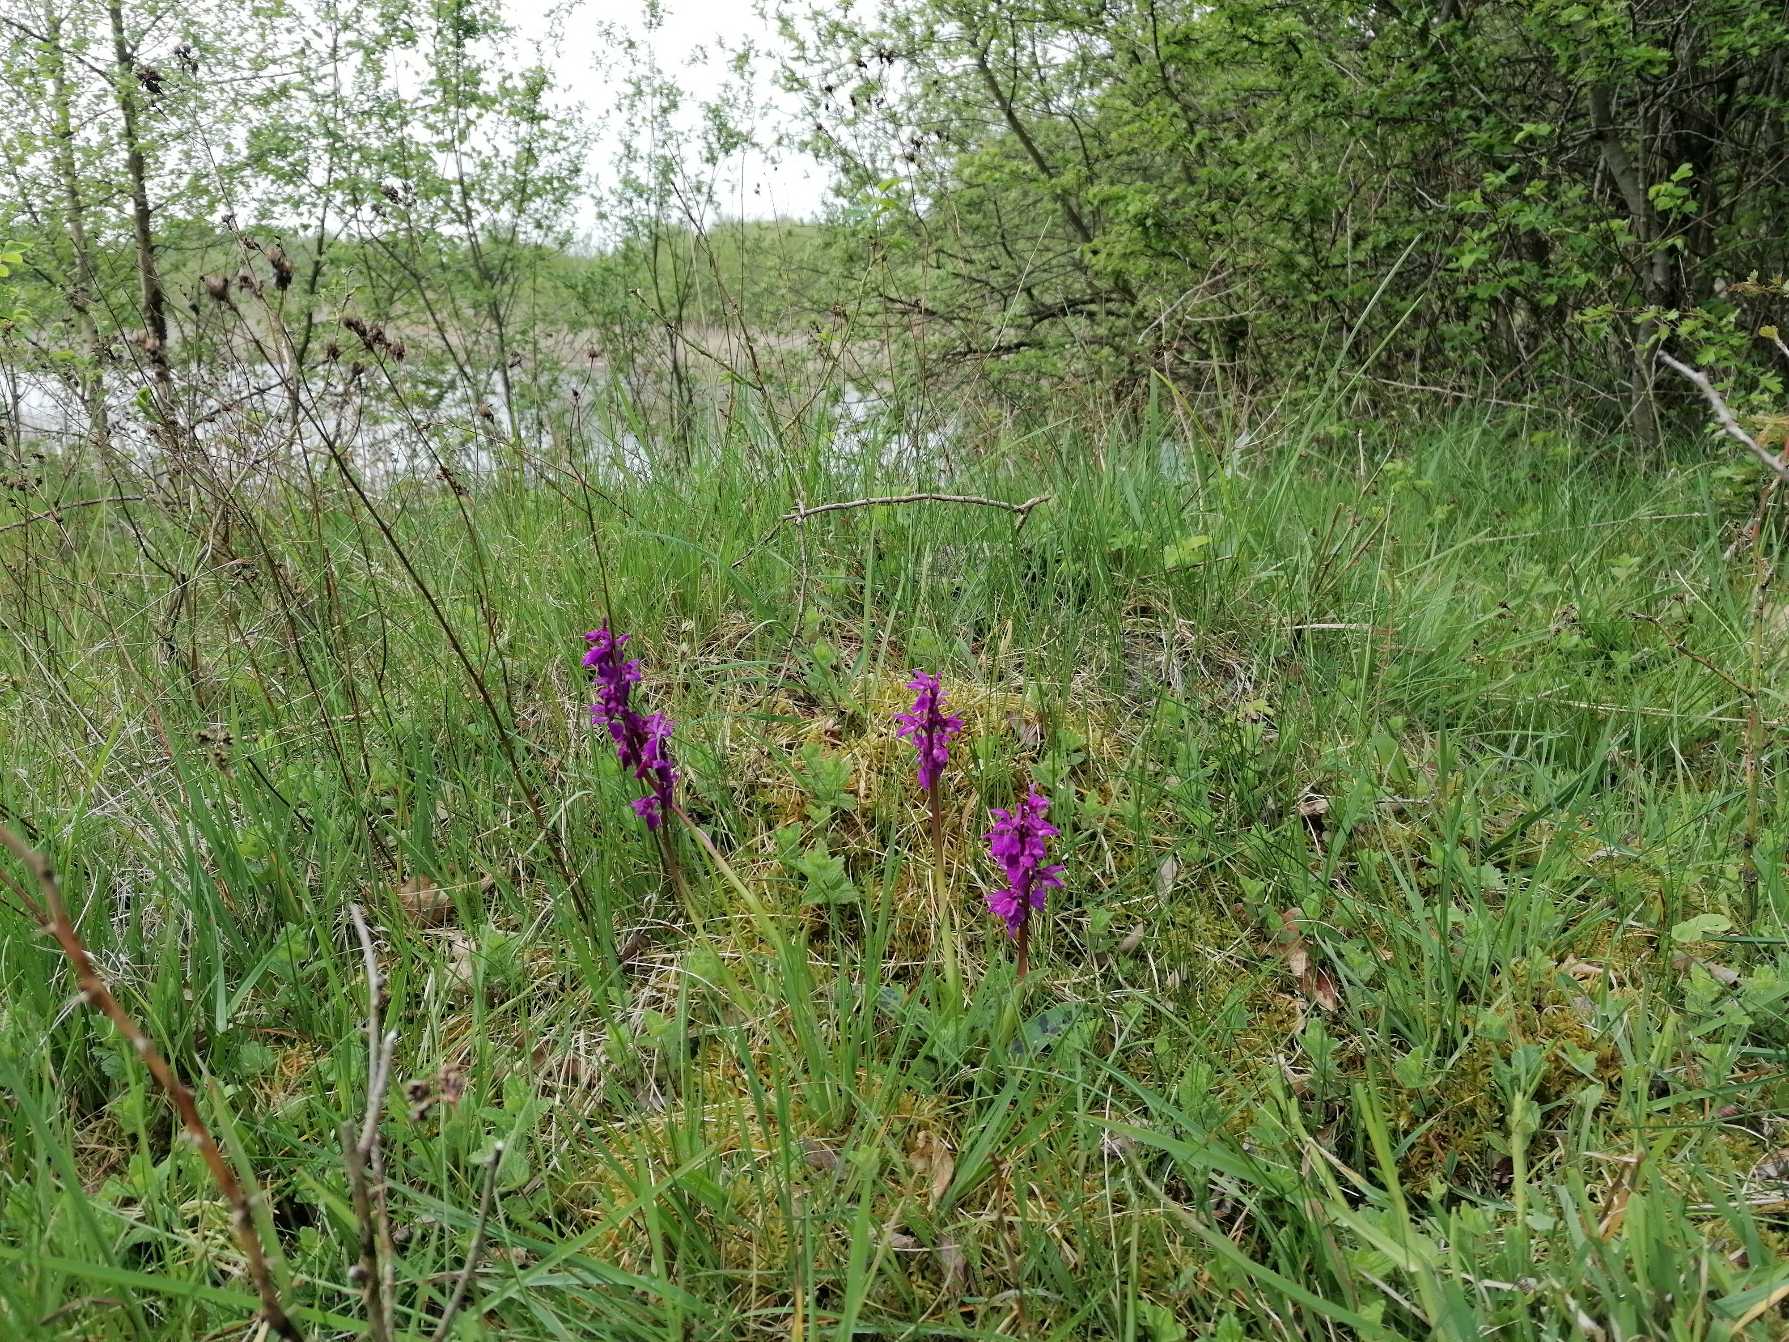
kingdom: Plantae
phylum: Tracheophyta
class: Liliopsida
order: Asparagales
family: Orchidaceae
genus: Orchis
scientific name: Orchis mascula
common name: Tyndakset gøgeurt
